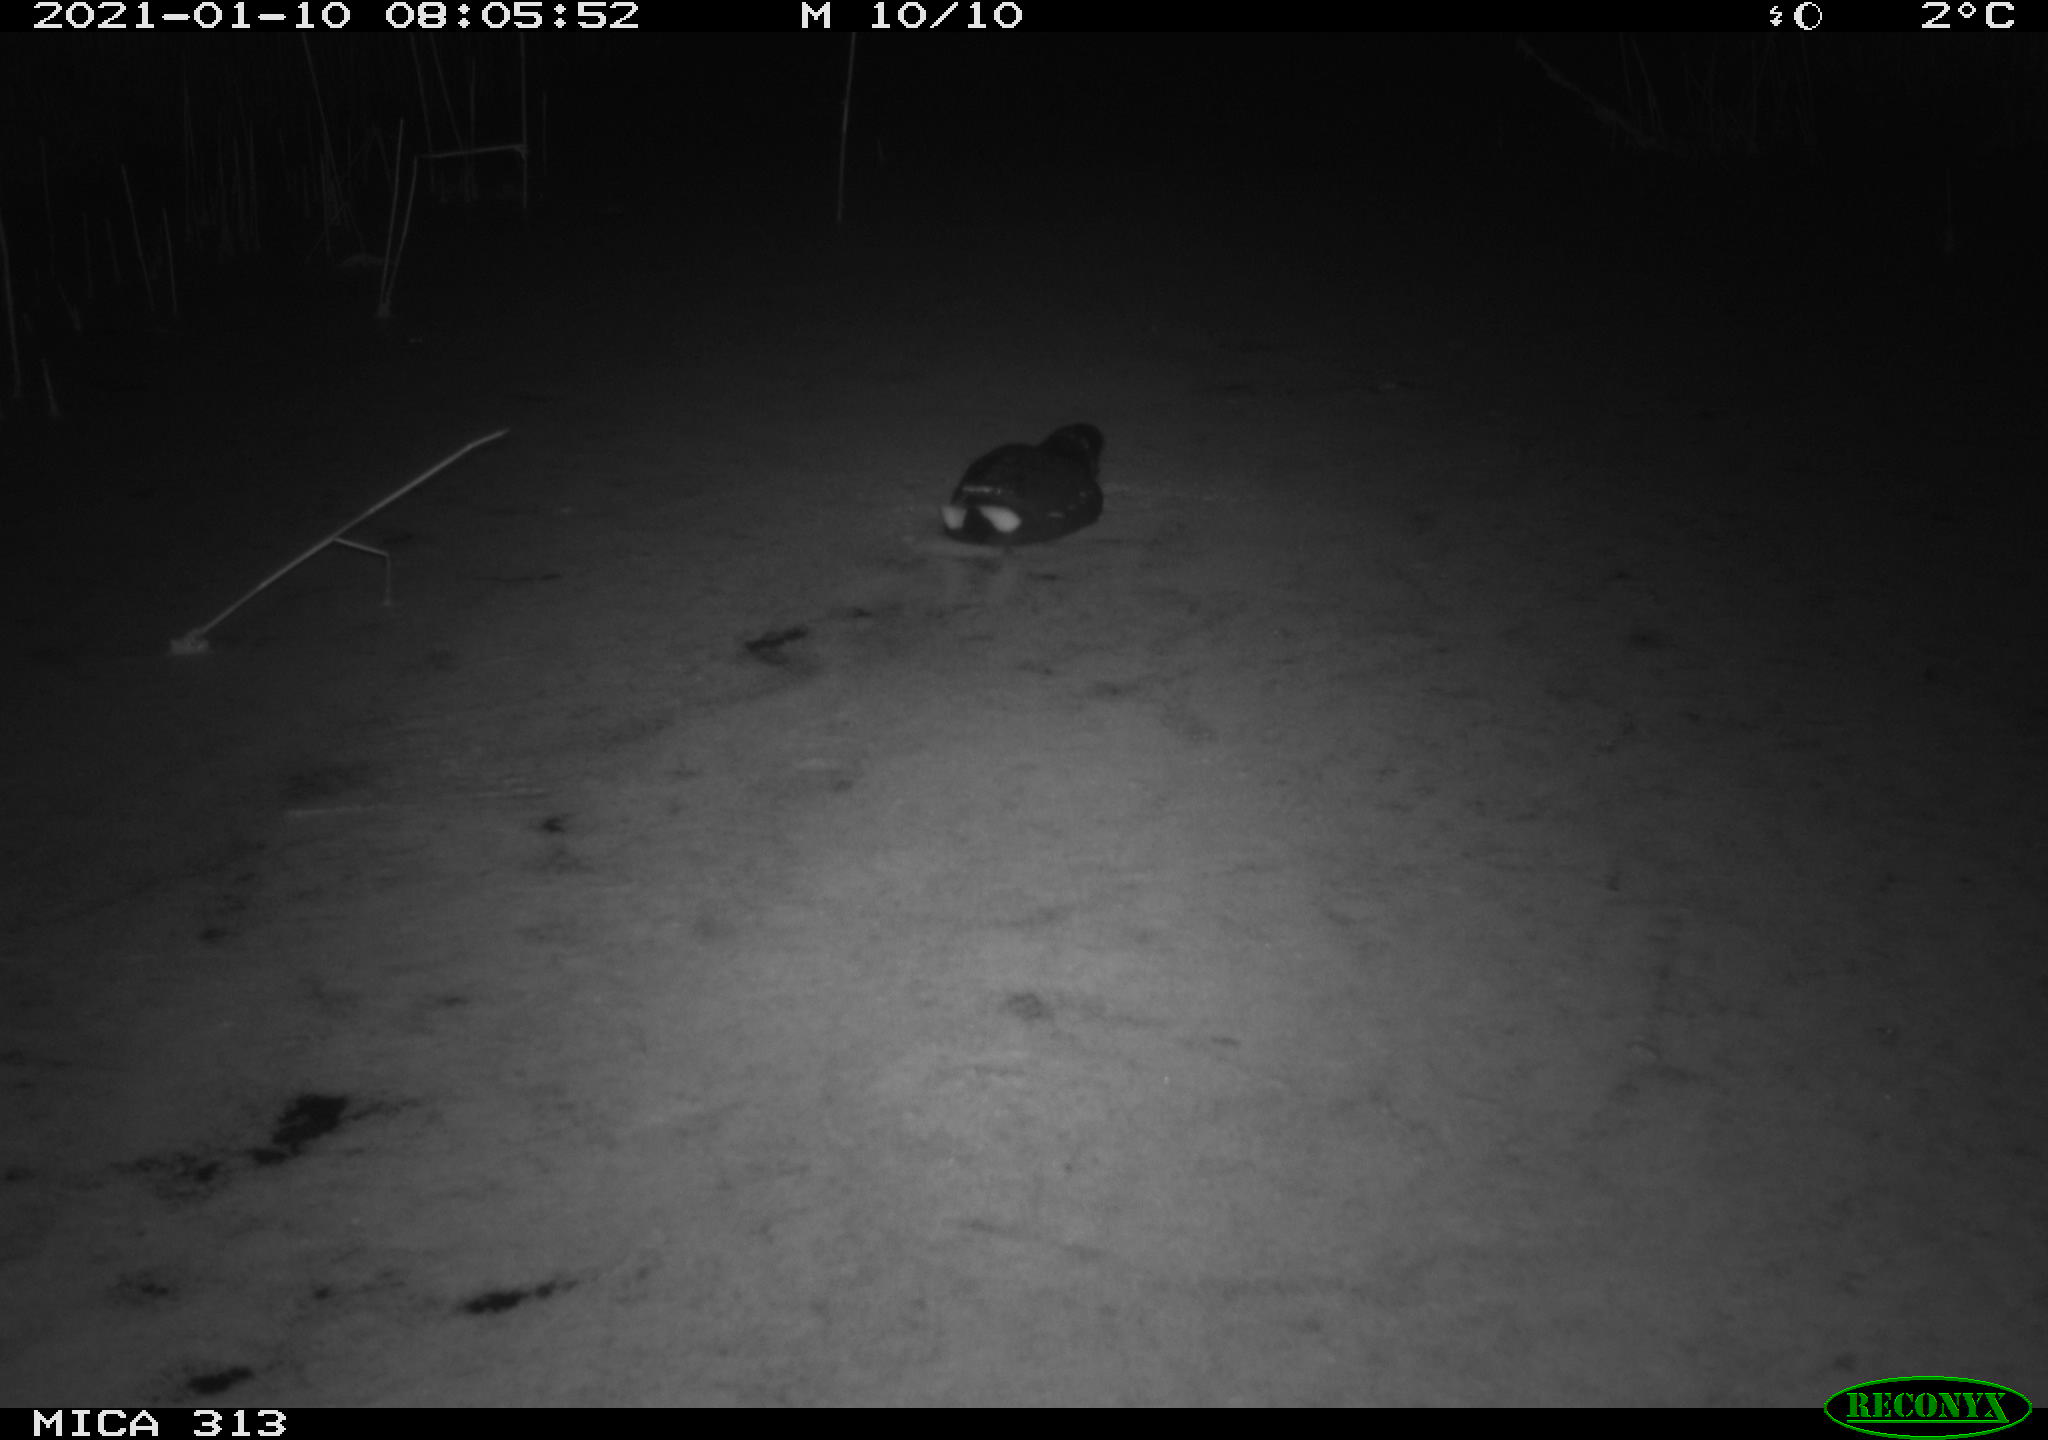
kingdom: Animalia
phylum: Chordata
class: Aves
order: Gruiformes
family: Rallidae
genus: Gallinula
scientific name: Gallinula chloropus
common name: Common moorhen
